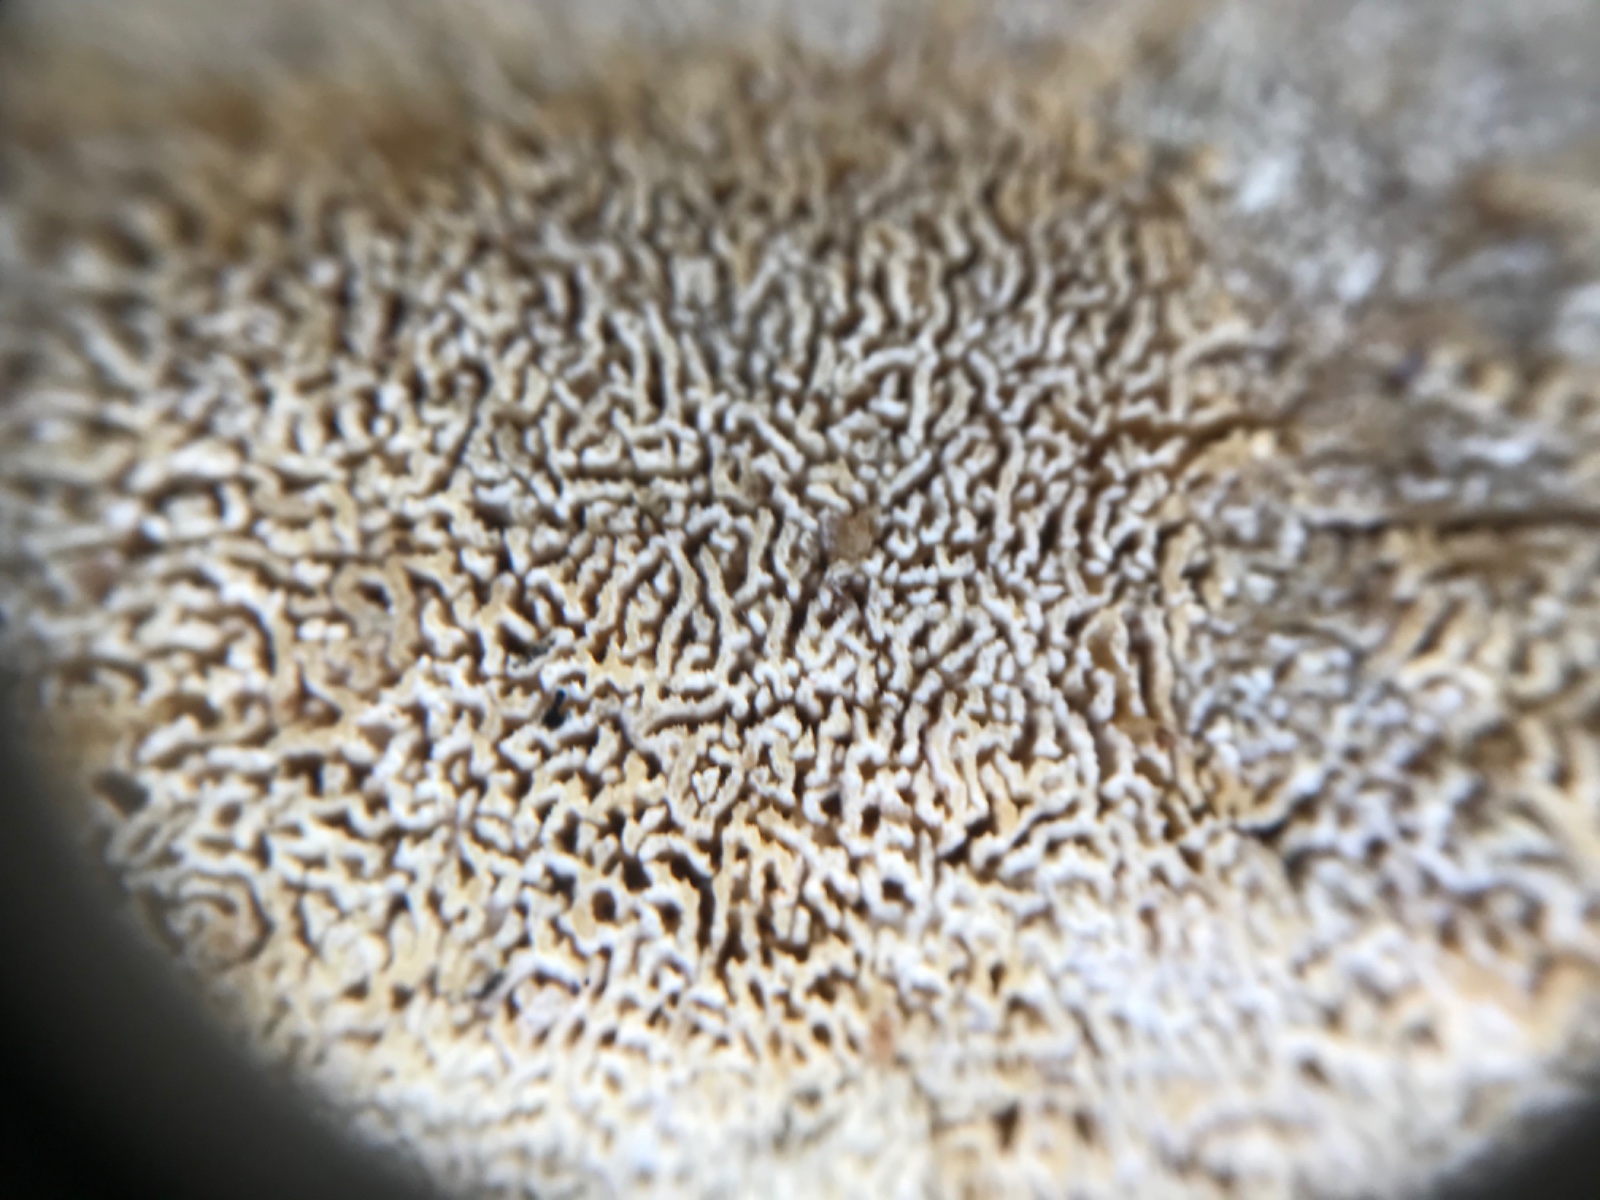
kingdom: Fungi
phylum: Basidiomycota
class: Agaricomycetes
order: Hymenochaetales
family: Schizoporaceae
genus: Xylodon
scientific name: Xylodon subtropicus
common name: labyrint-tandsvamp
